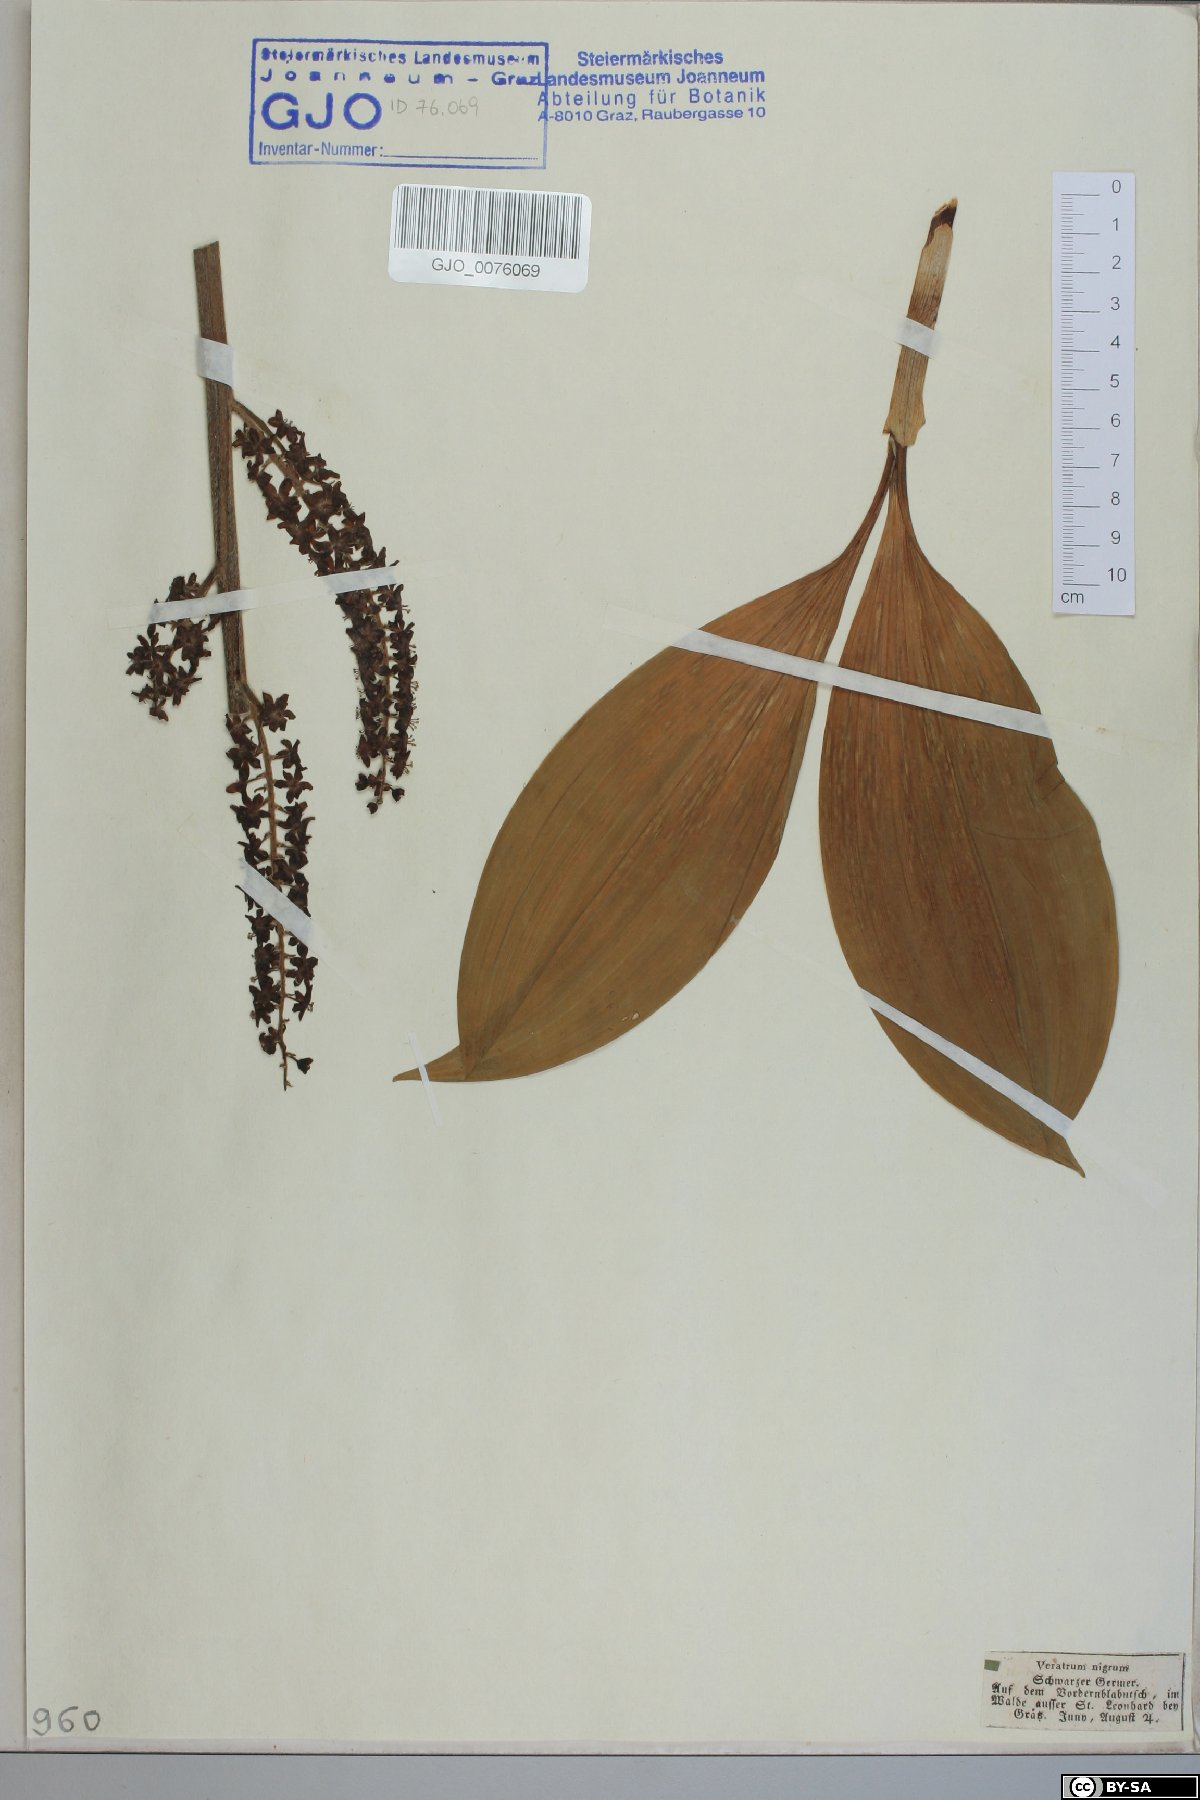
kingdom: Plantae
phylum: Tracheophyta
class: Liliopsida
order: Liliales
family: Melanthiaceae
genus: Veratrum
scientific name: Veratrum nigrum
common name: Black veratrum
